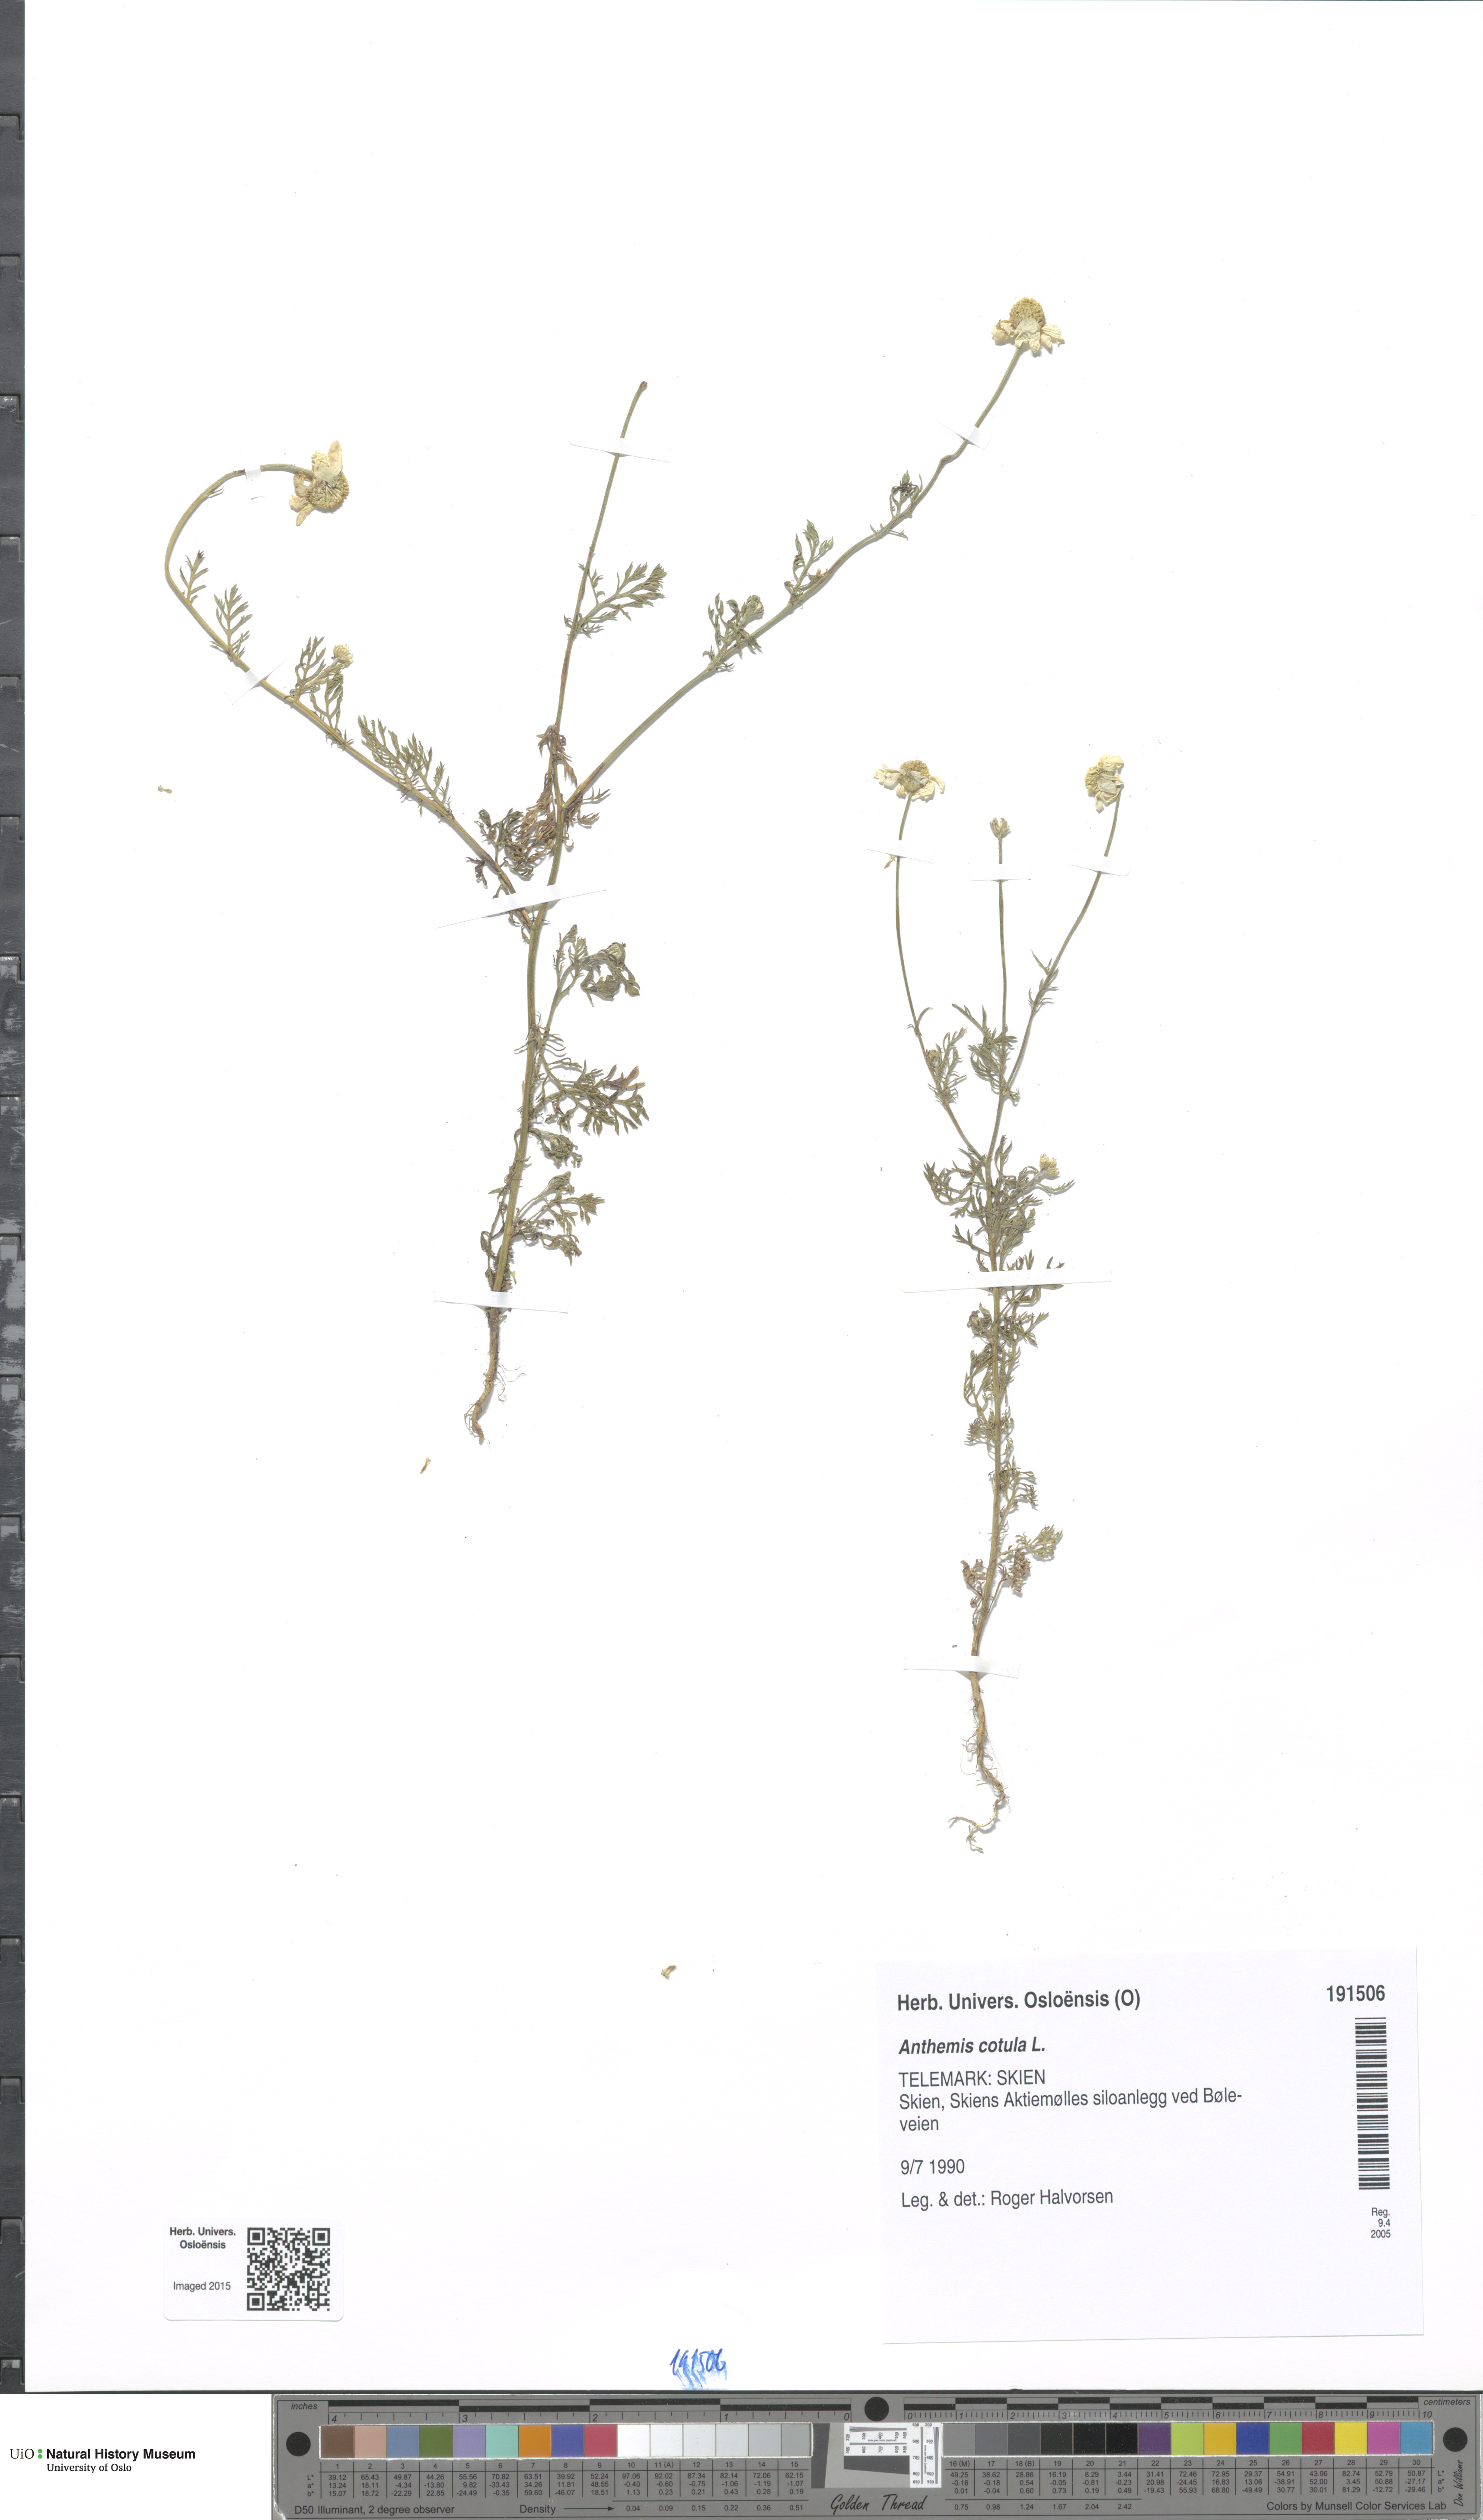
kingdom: Plantae
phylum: Tracheophyta
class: Magnoliopsida
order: Asterales
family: Asteraceae
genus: Anthemis
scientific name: Anthemis cotula
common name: Stinking chamomile
